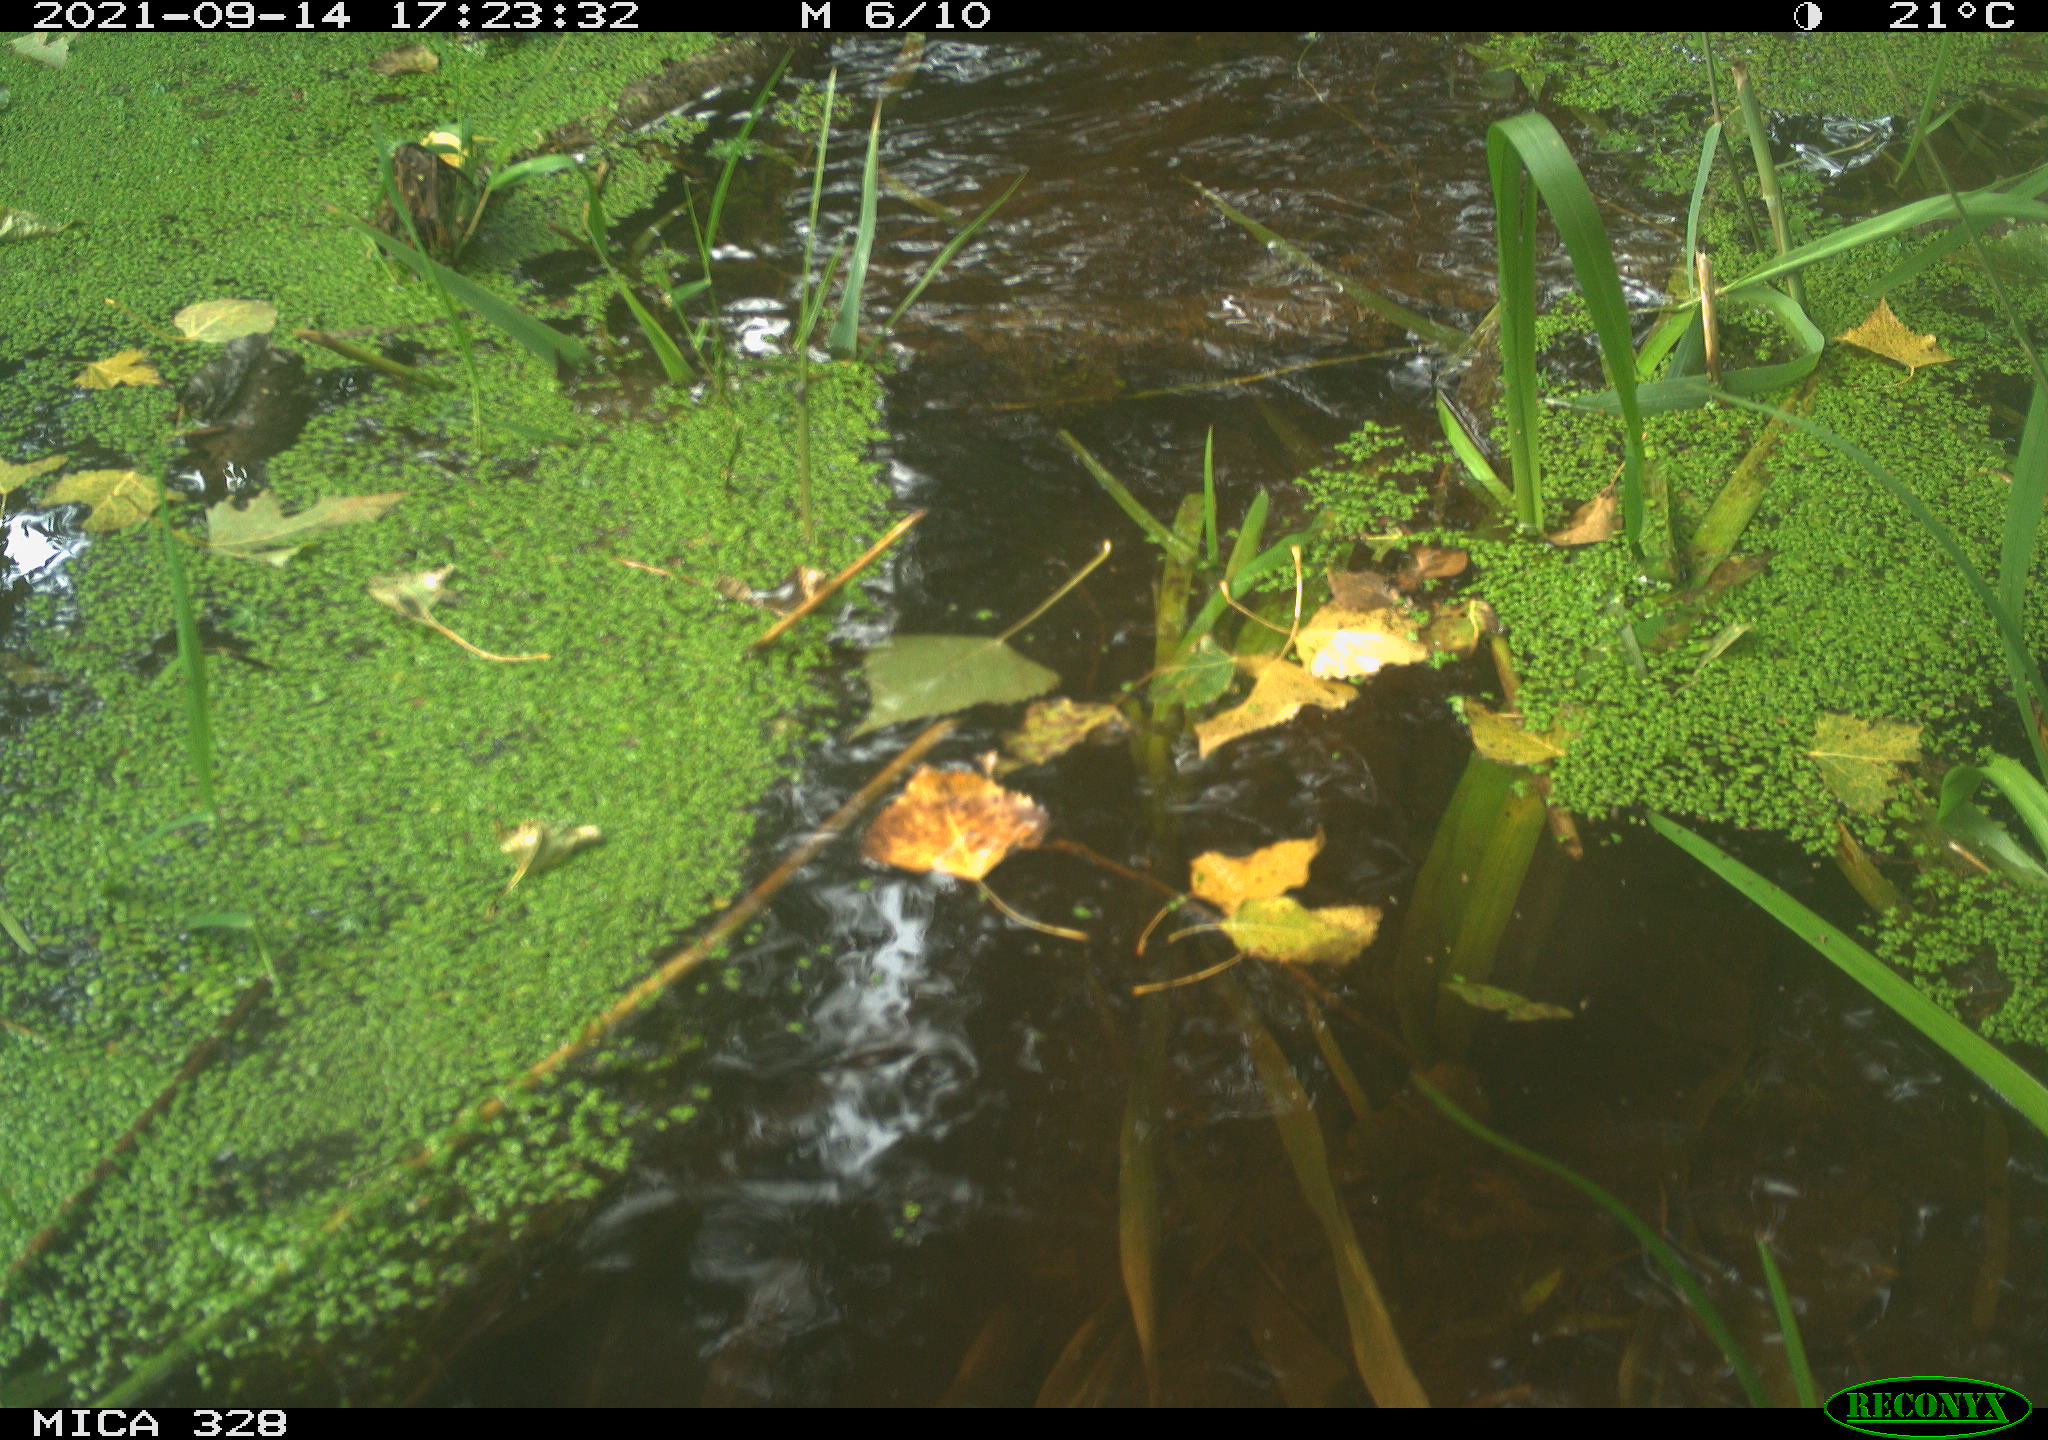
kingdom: Animalia
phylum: Chordata
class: Mammalia
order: Rodentia
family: Cricetidae
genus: Ondatra
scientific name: Ondatra zibethicus
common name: Muskrat
